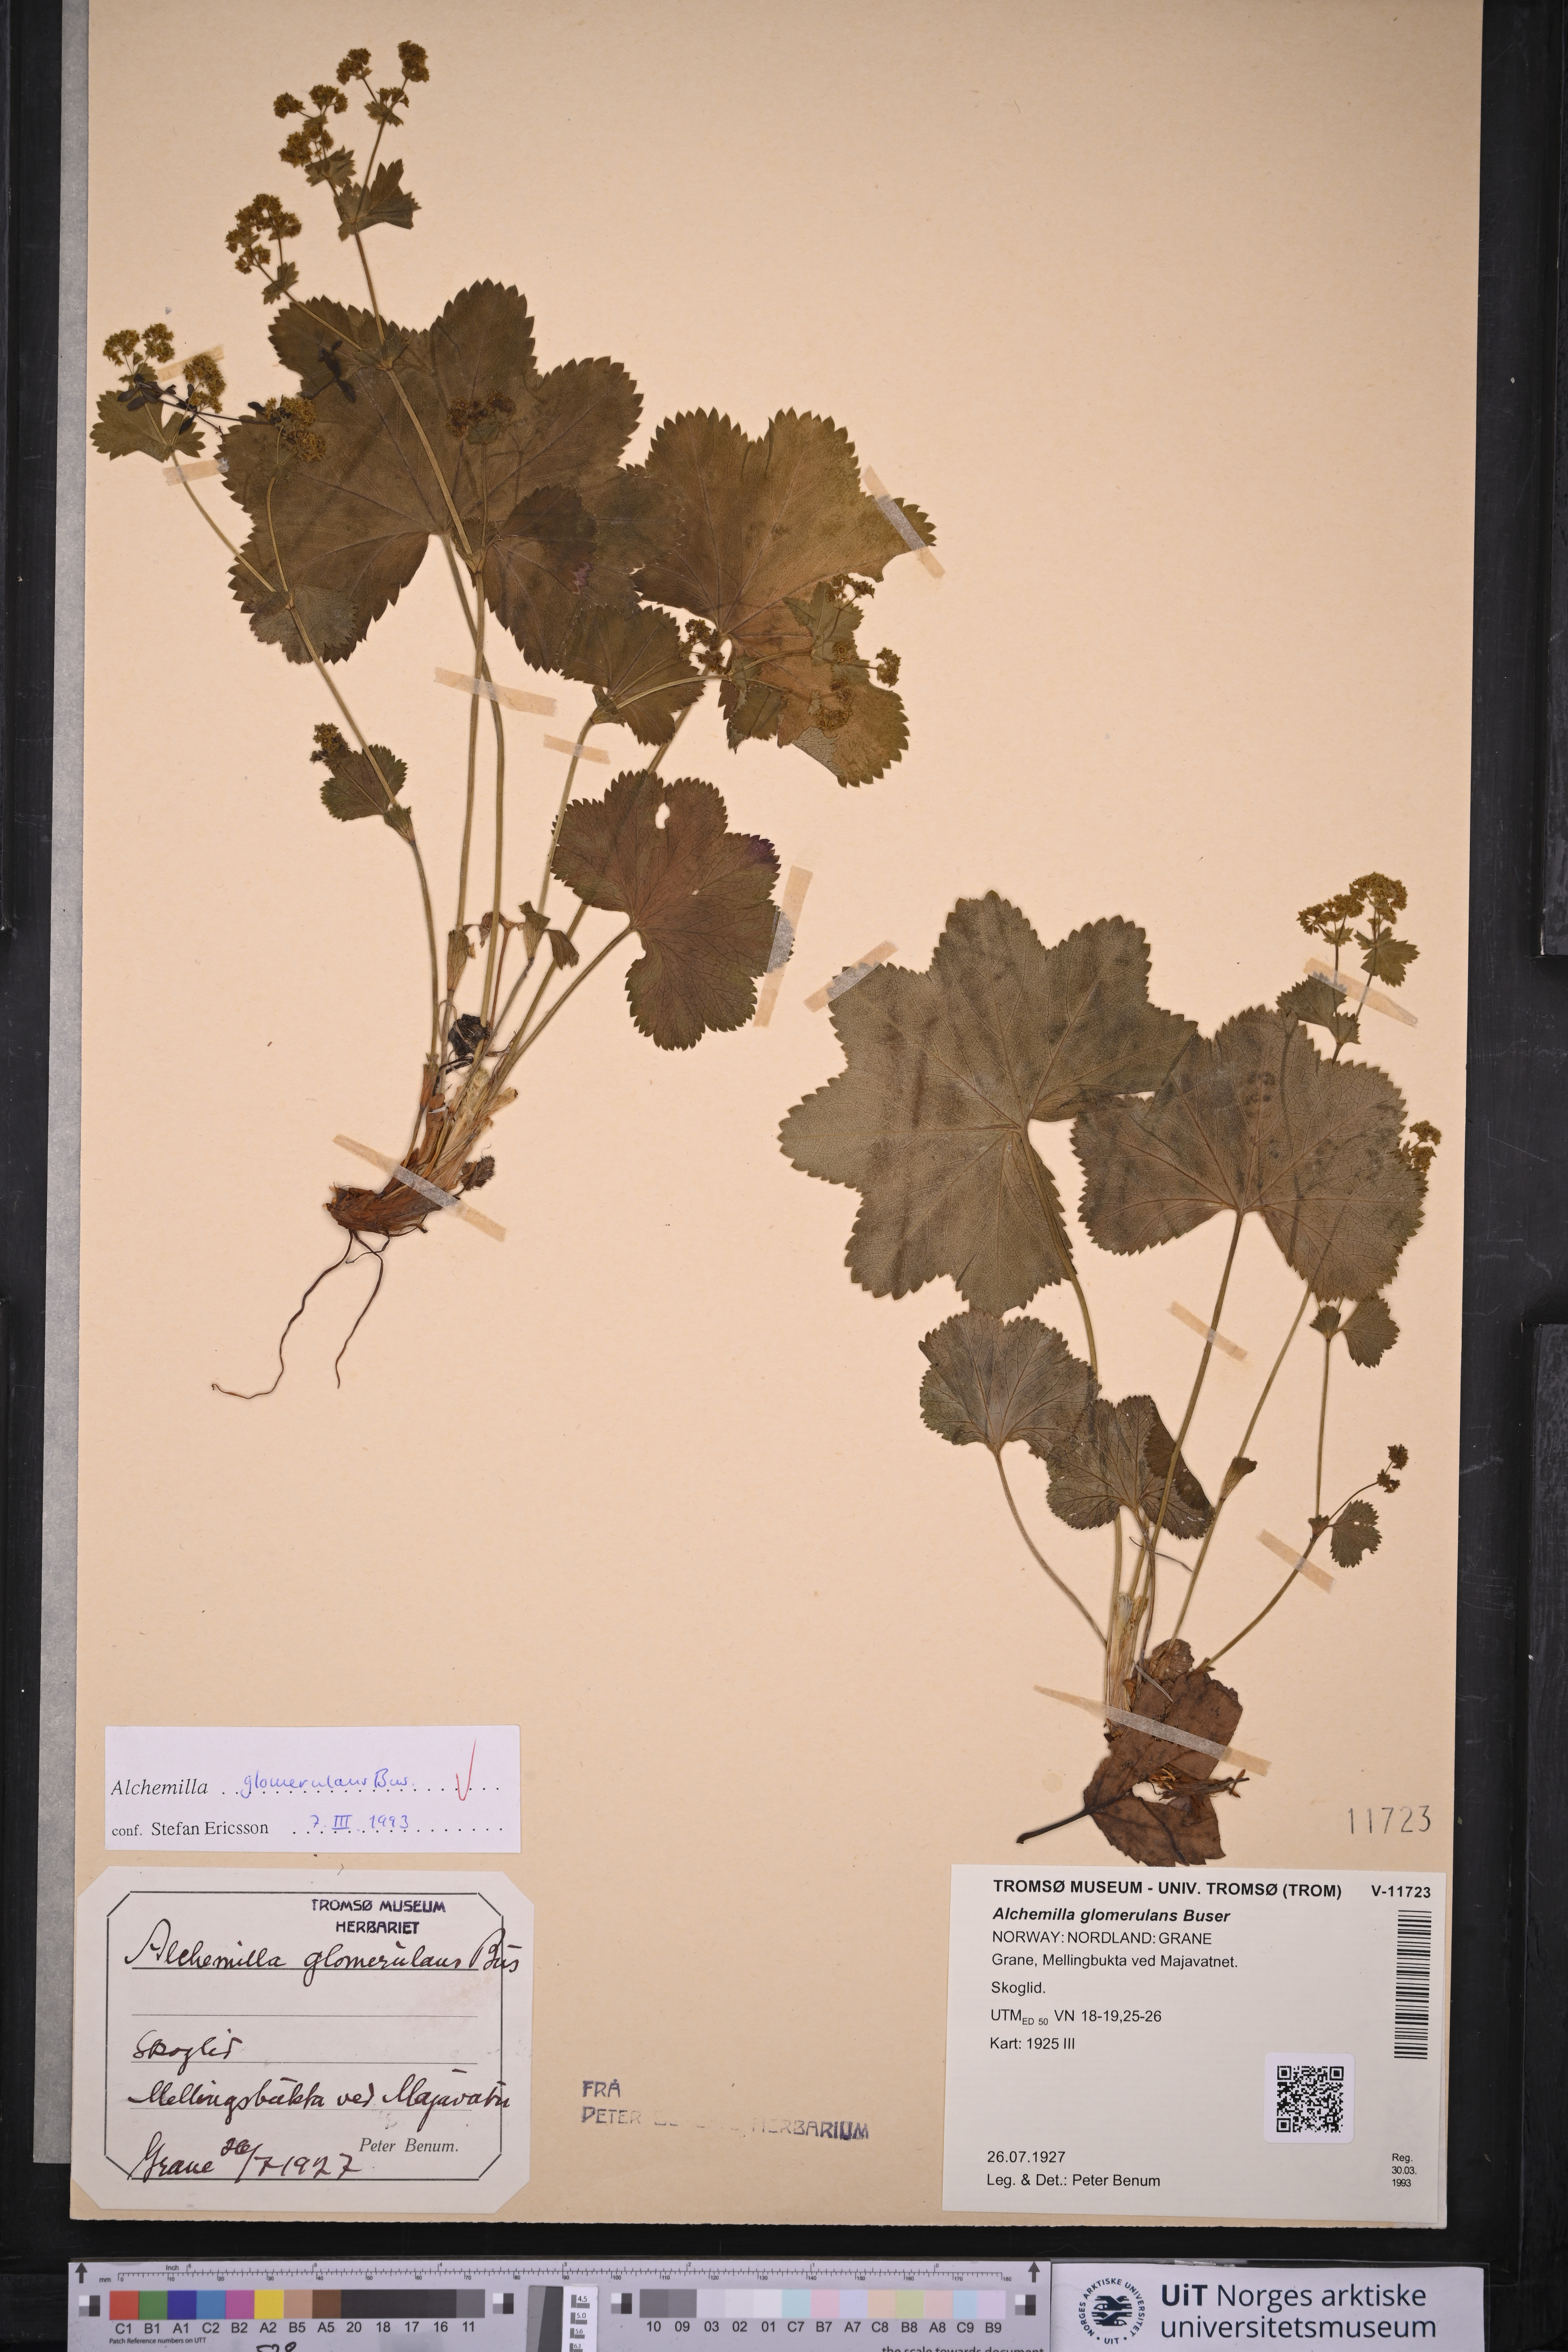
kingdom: Plantae
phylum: Tracheophyta
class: Magnoliopsida
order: Rosales
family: Rosaceae
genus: Alchemilla
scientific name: Alchemilla glomerulans
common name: Clustered lady's mantle
